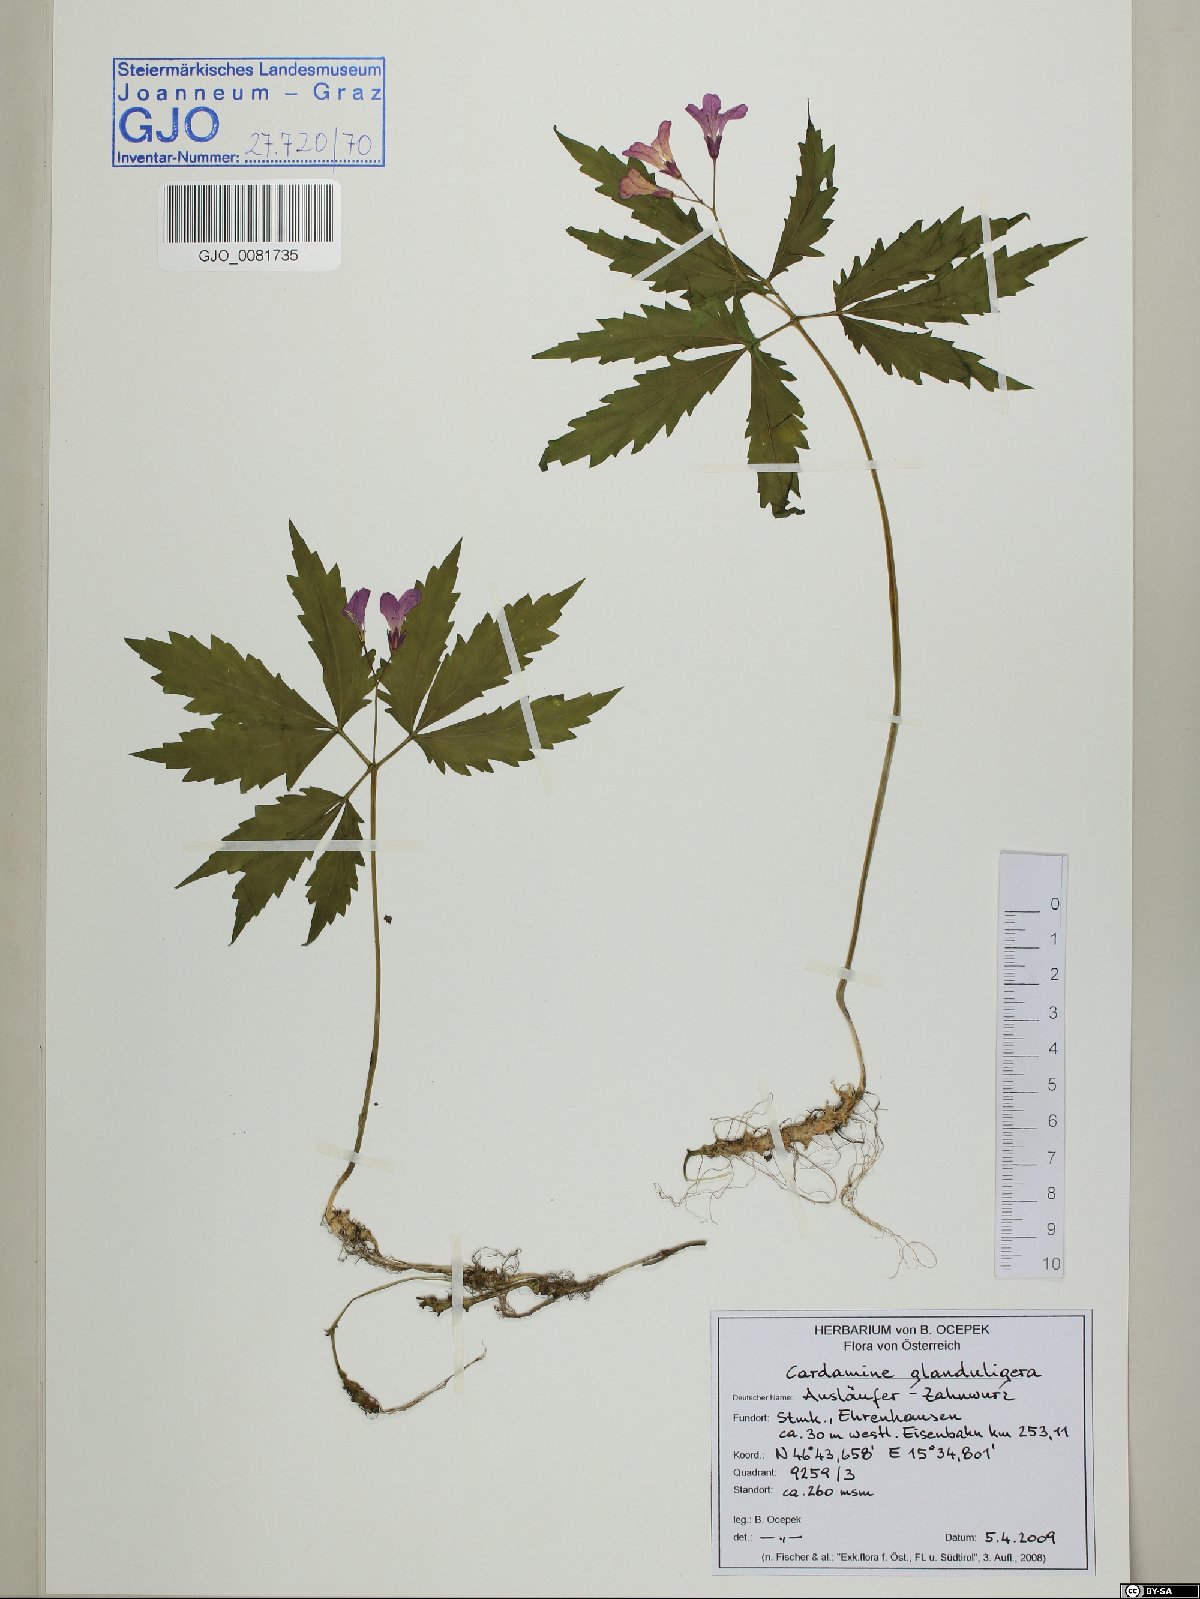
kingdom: Plantae
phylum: Tracheophyta
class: Magnoliopsida
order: Brassicales
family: Brassicaceae
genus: Cardamine
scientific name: Cardamine glanduligera
